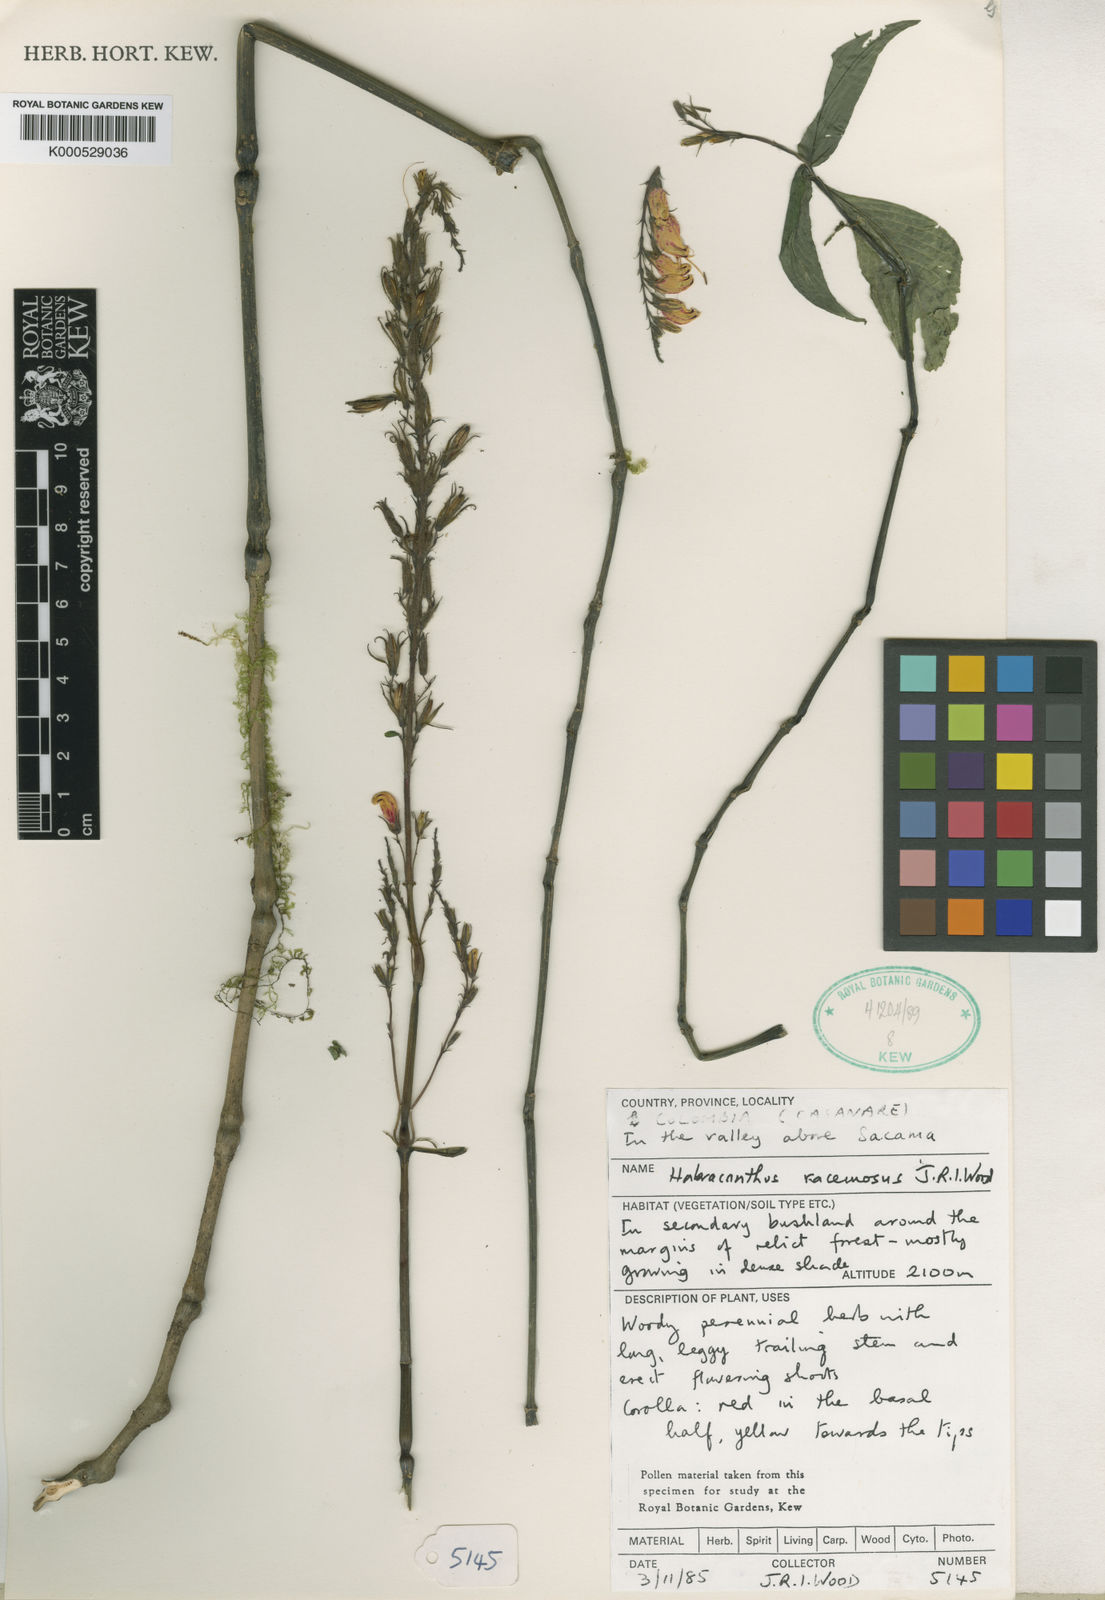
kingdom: Plantae
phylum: Tracheophyta
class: Magnoliopsida
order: Lamiales
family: Acanthaceae
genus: Stenostephanus
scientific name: Stenostephanus racemosus
